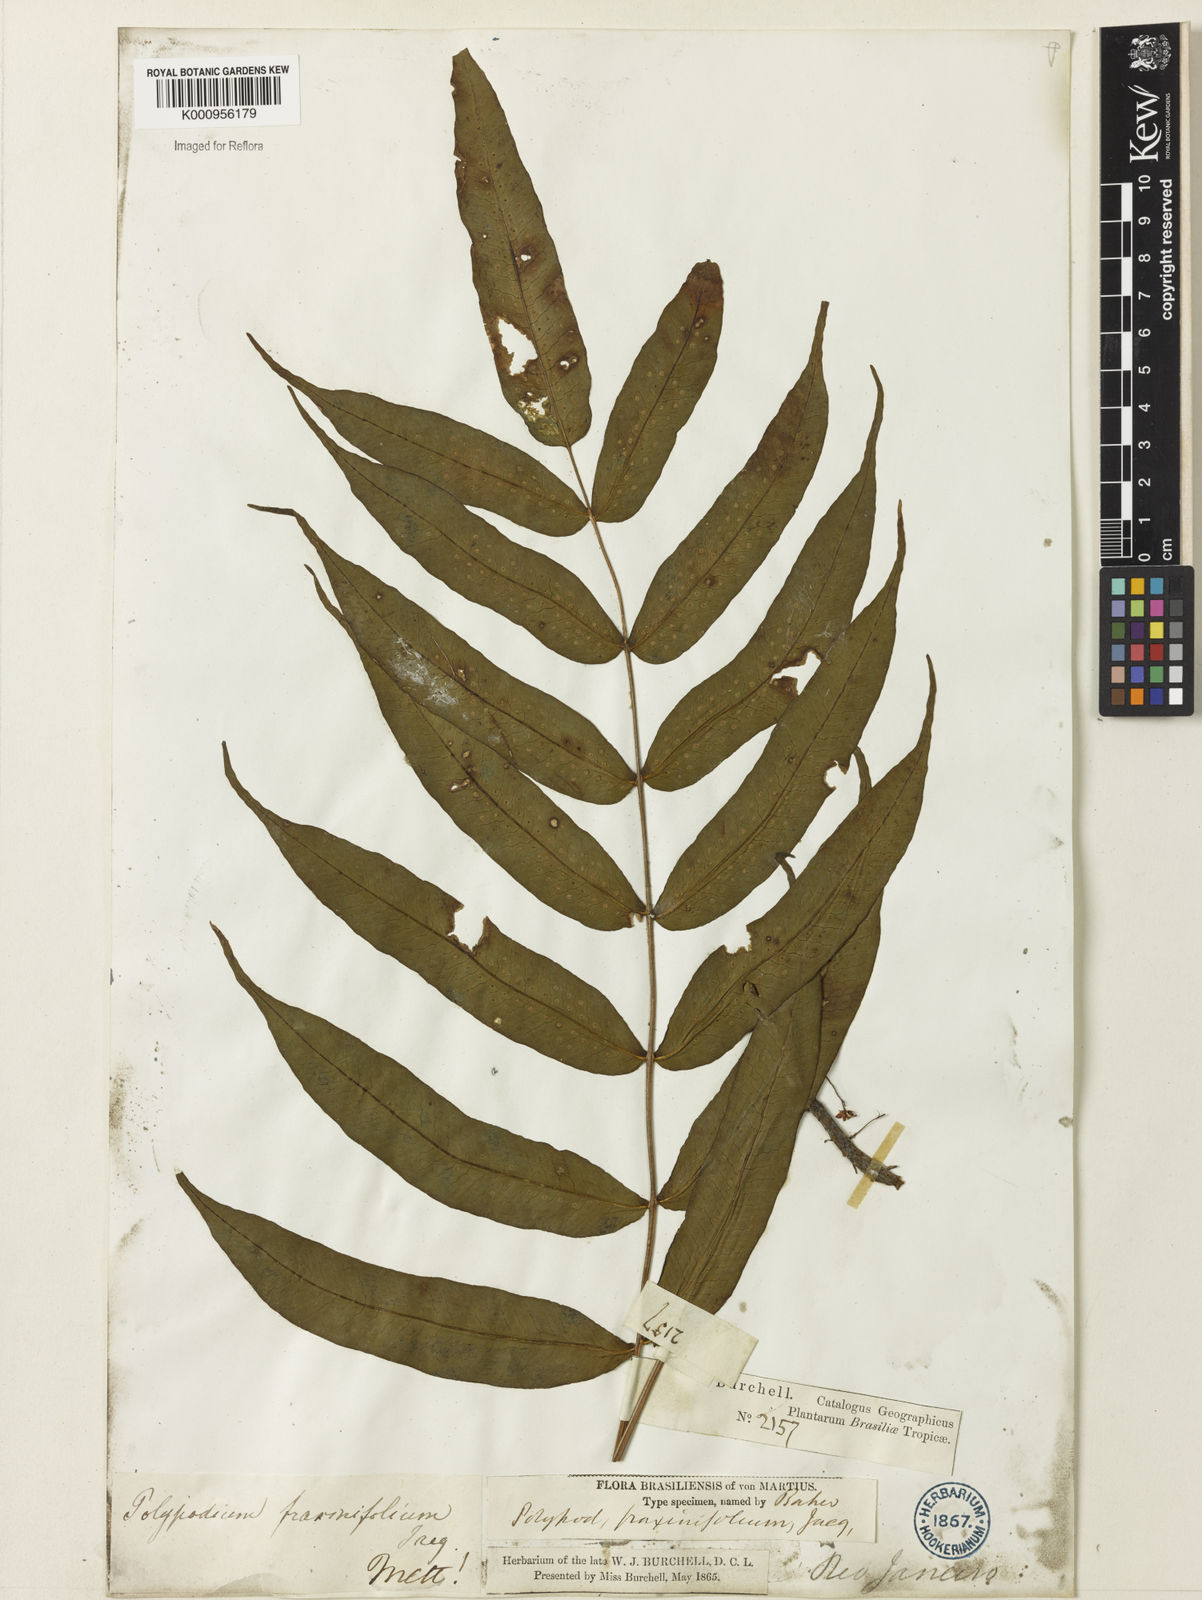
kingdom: Plantae
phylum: Tracheophyta
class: Polypodiopsida
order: Polypodiales
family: Polypodiaceae
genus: Serpocaulon
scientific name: Serpocaulon fraxinifolium
